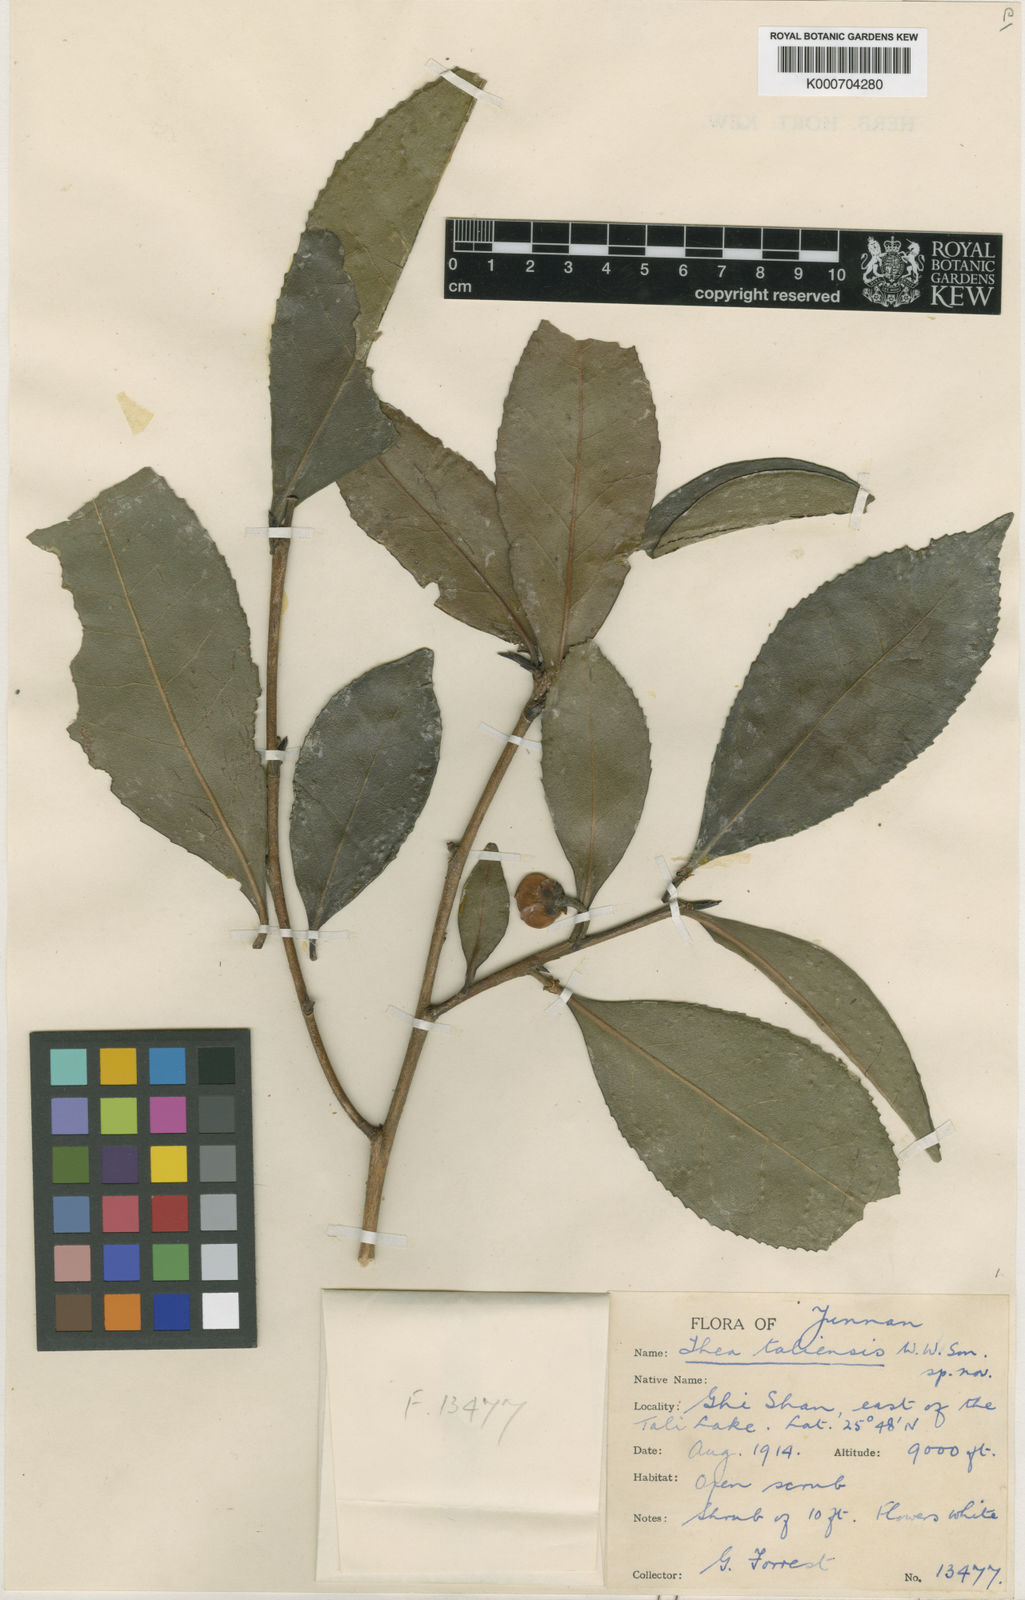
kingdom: Plantae
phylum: Tracheophyta
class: Magnoliopsida
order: Ericales
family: Theaceae
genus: Camellia
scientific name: Camellia taliensis
